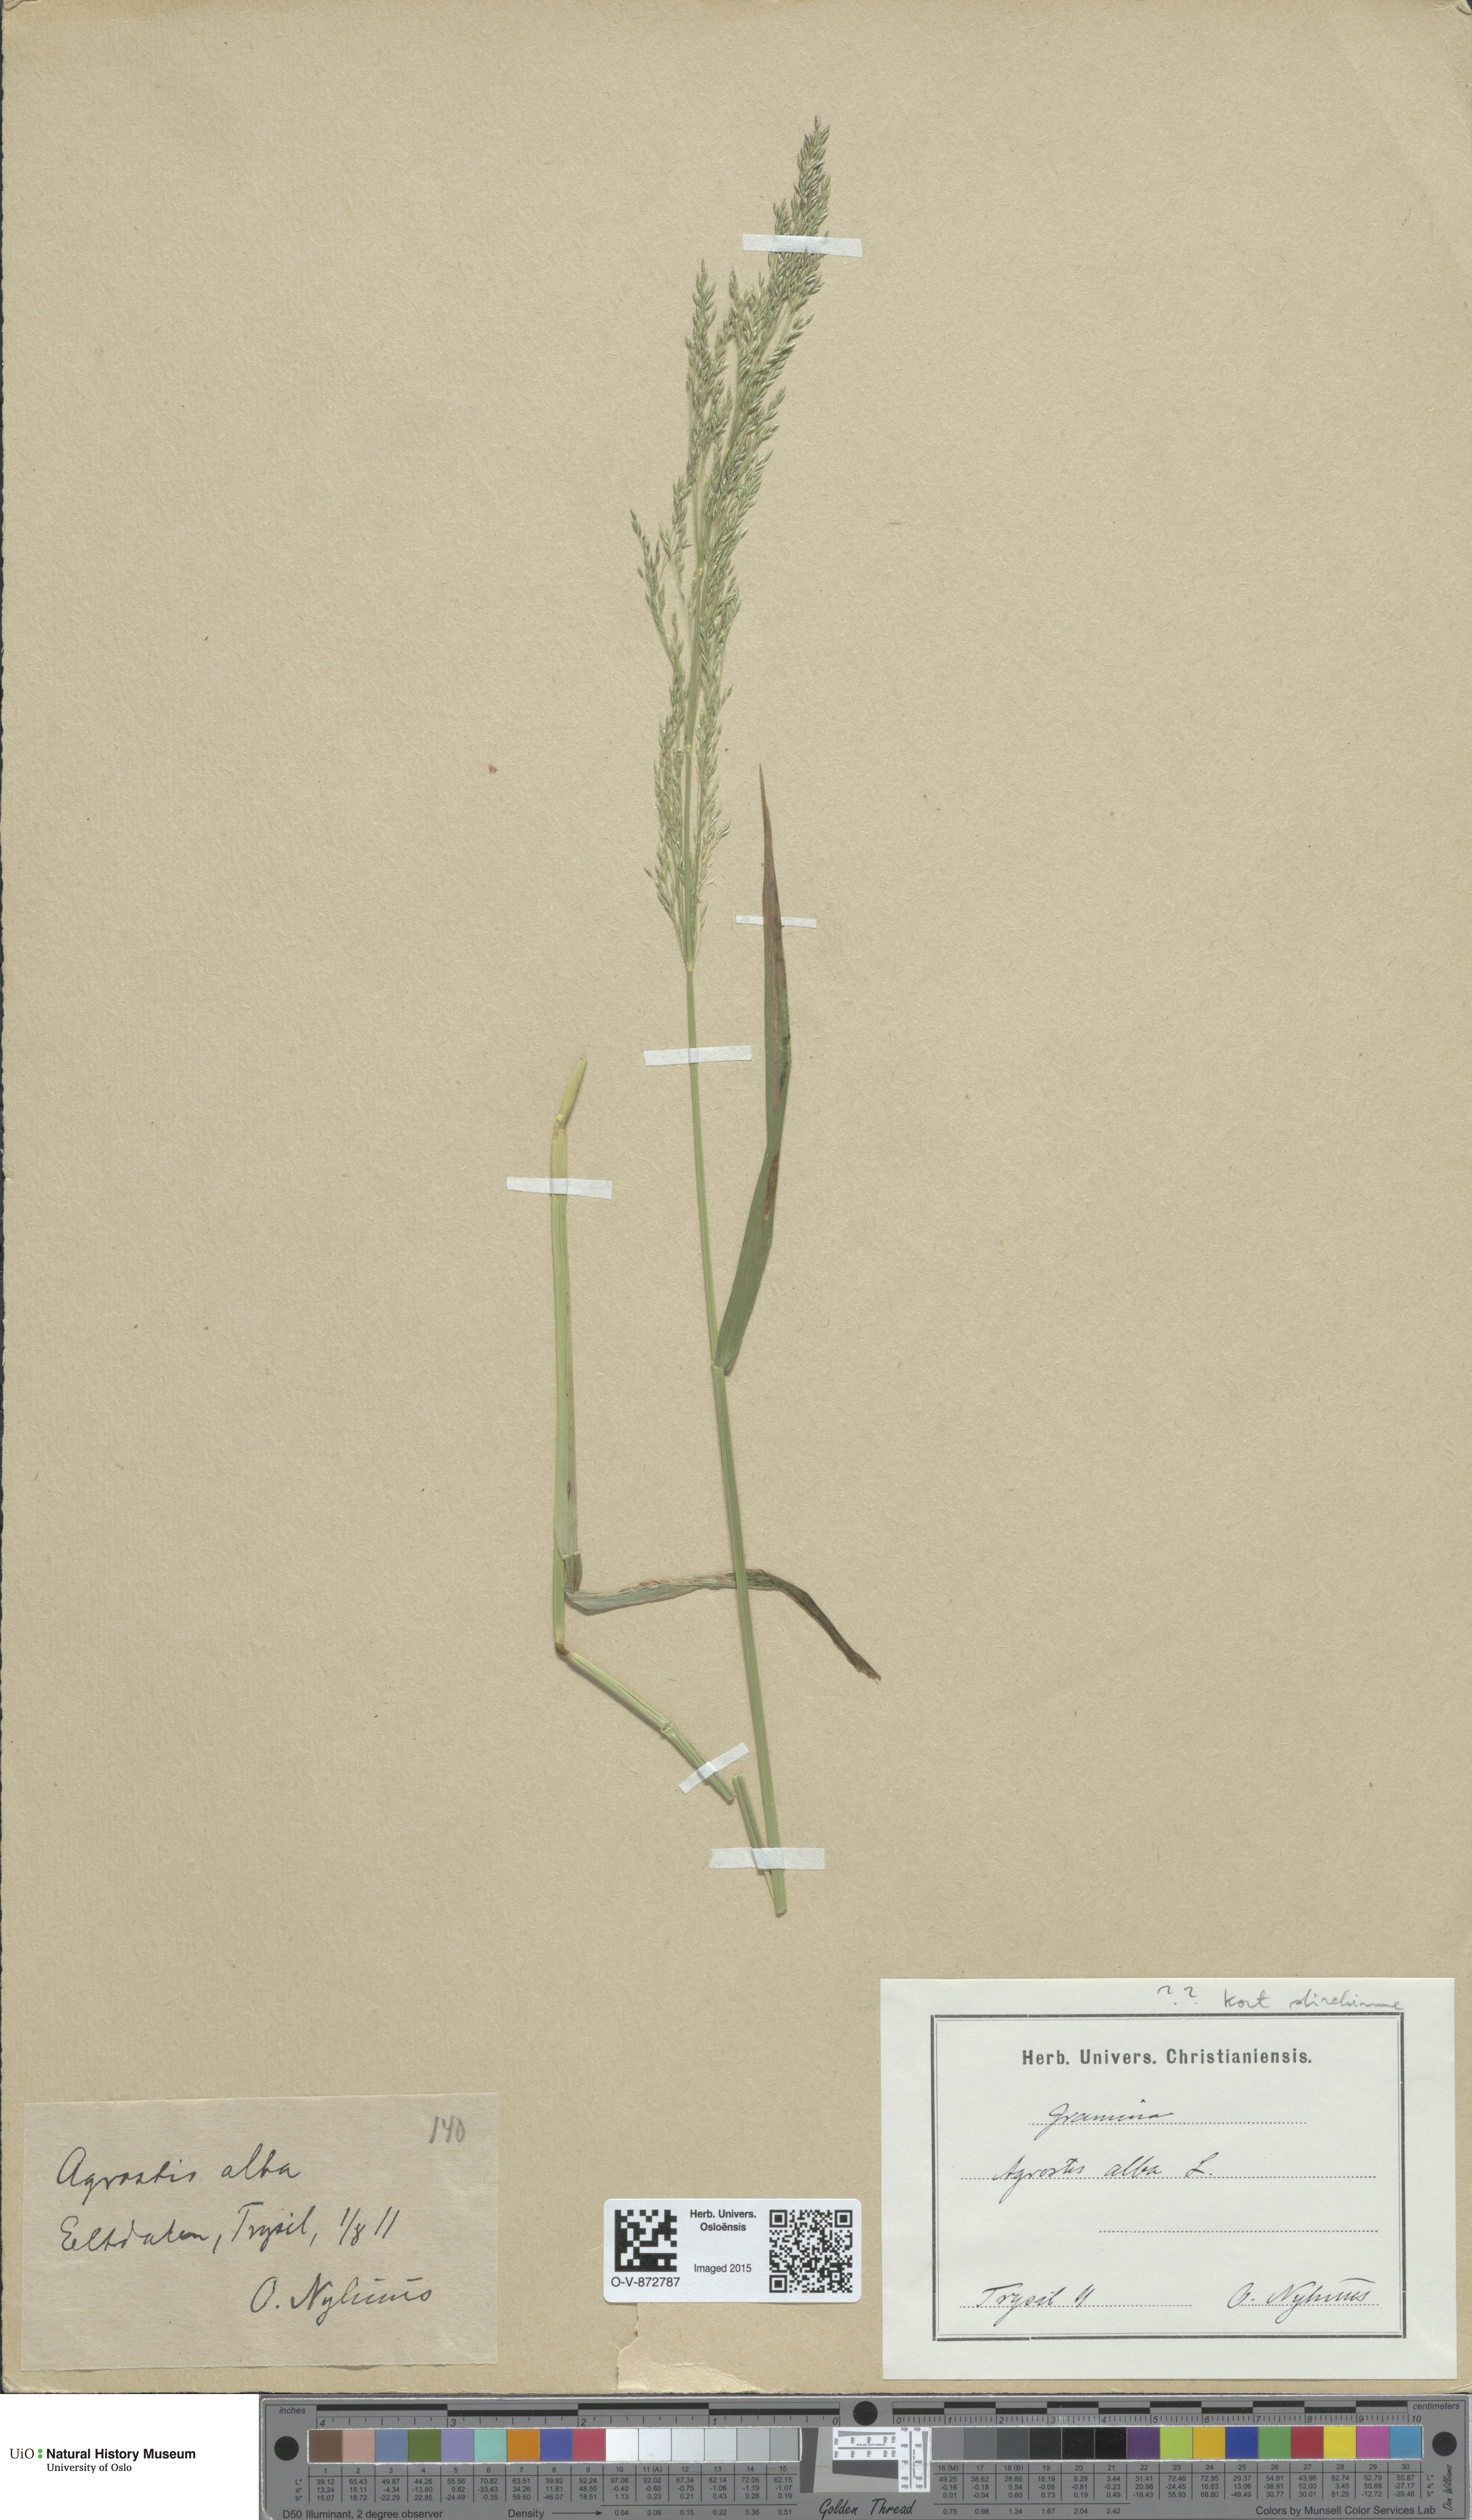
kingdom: Plantae
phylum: Tracheophyta
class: Liliopsida
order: Poales
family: Poaceae
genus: Agrostis
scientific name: Agrostis stolonifera
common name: Creeping bentgrass
